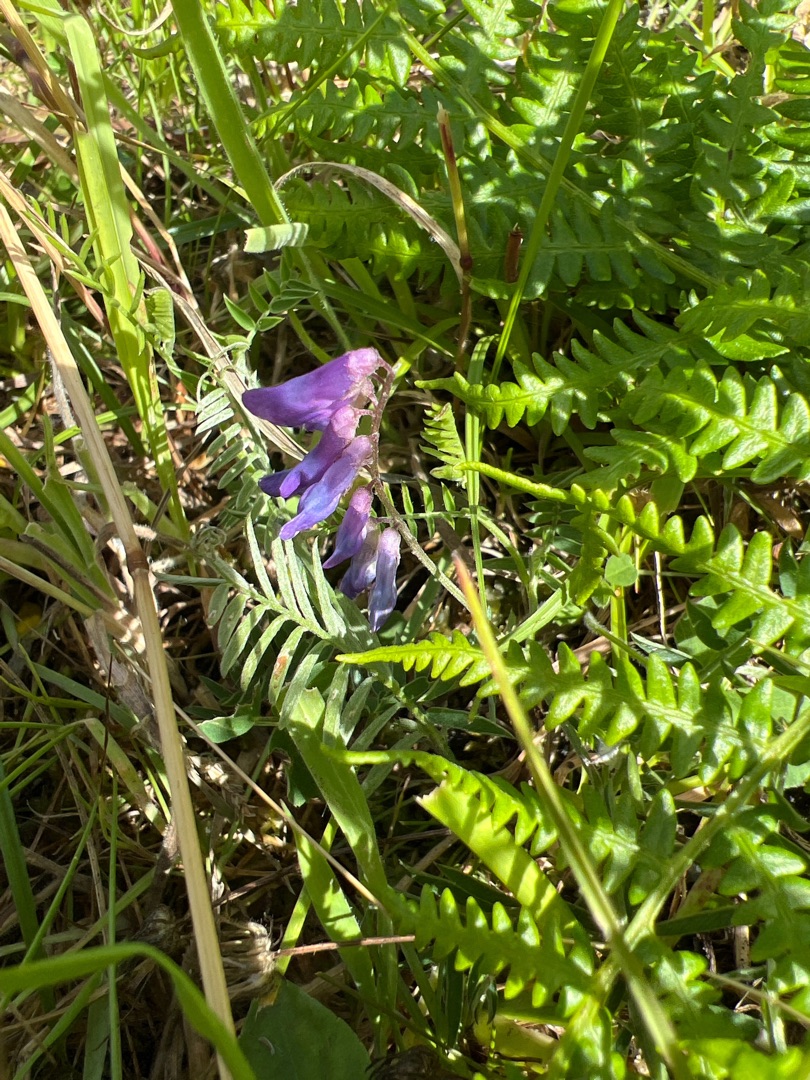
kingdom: Plantae
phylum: Tracheophyta
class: Magnoliopsida
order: Fabales
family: Fabaceae
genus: Vicia
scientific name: Vicia cracca
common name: Muse-vikke
